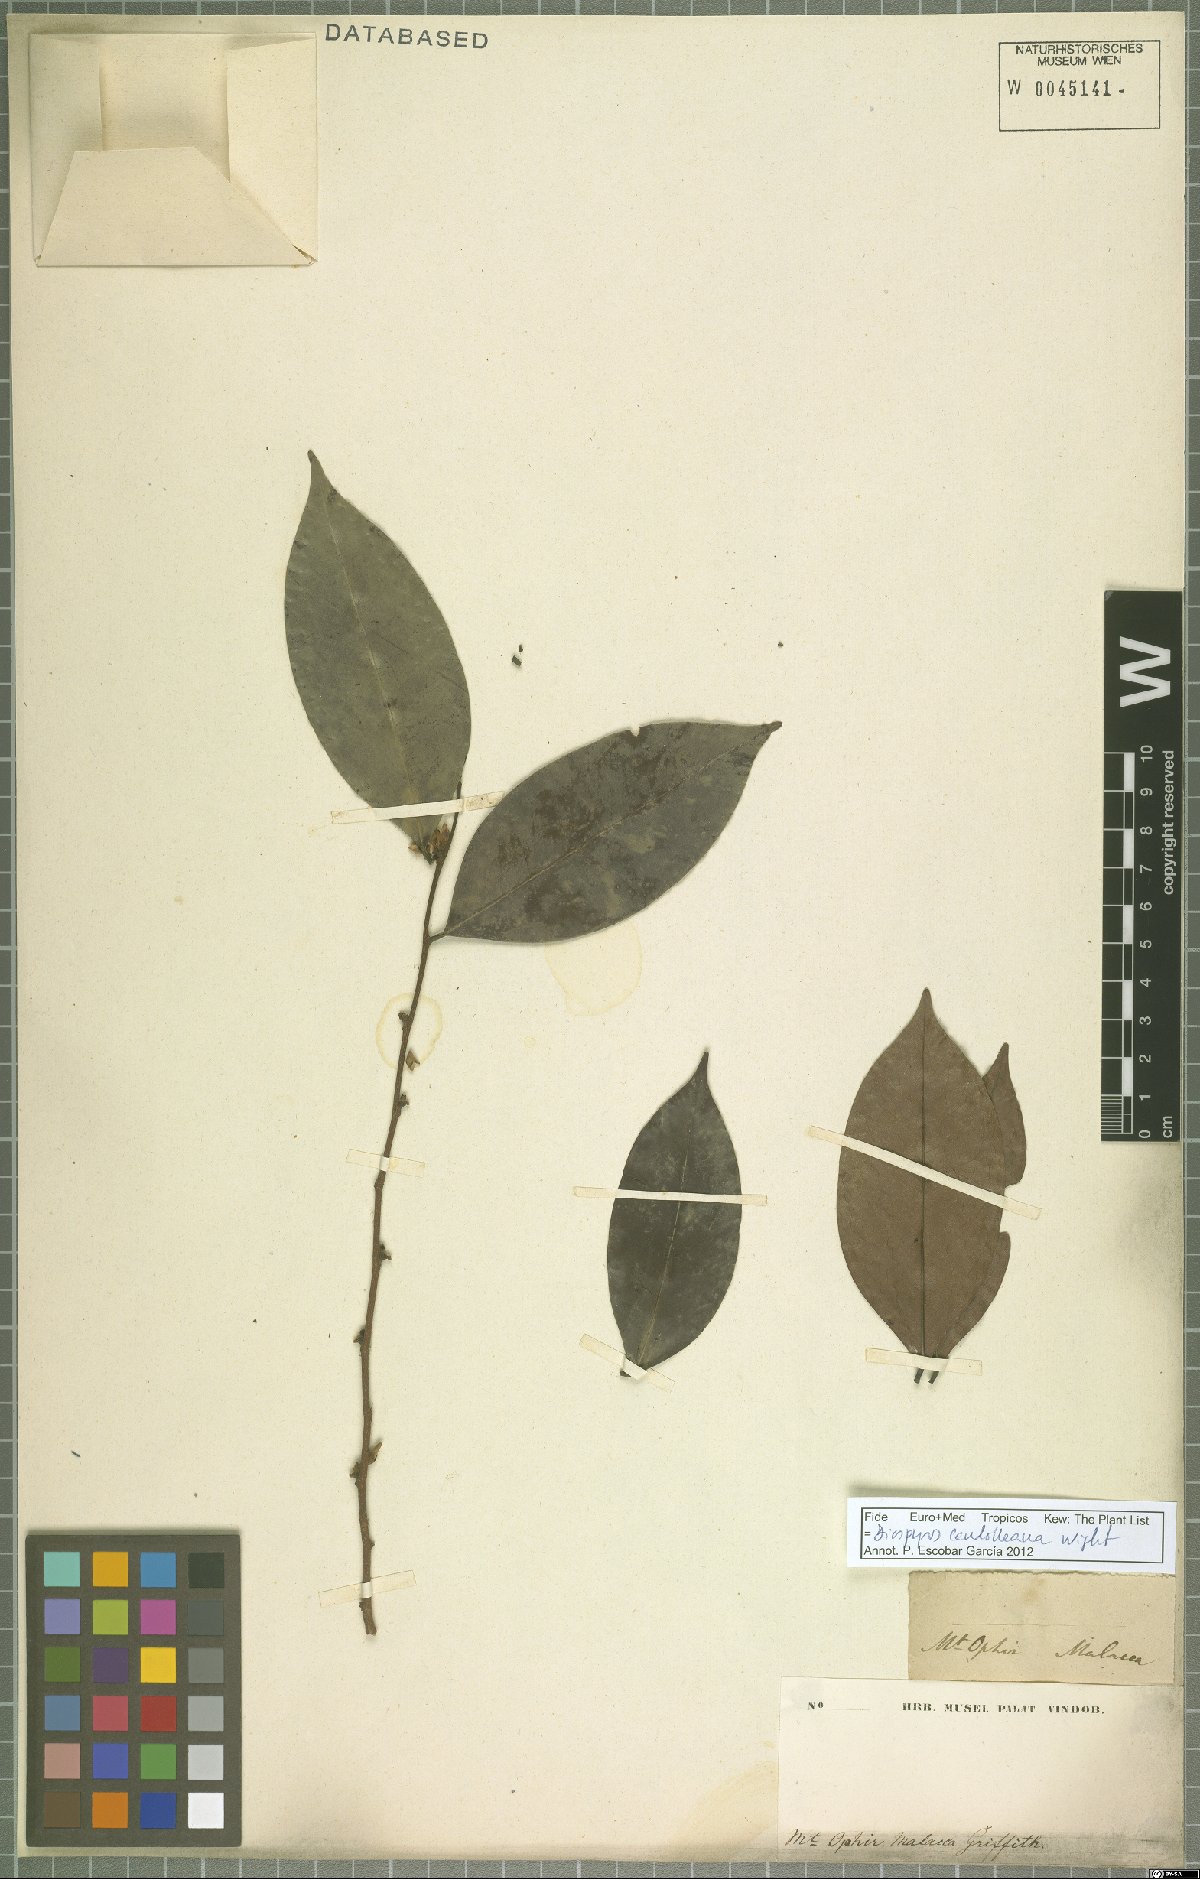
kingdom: Plantae
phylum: Tracheophyta
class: Magnoliopsida
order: Ericales
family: Ebenaceae
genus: Diospyros
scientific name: Diospyros candolleana
